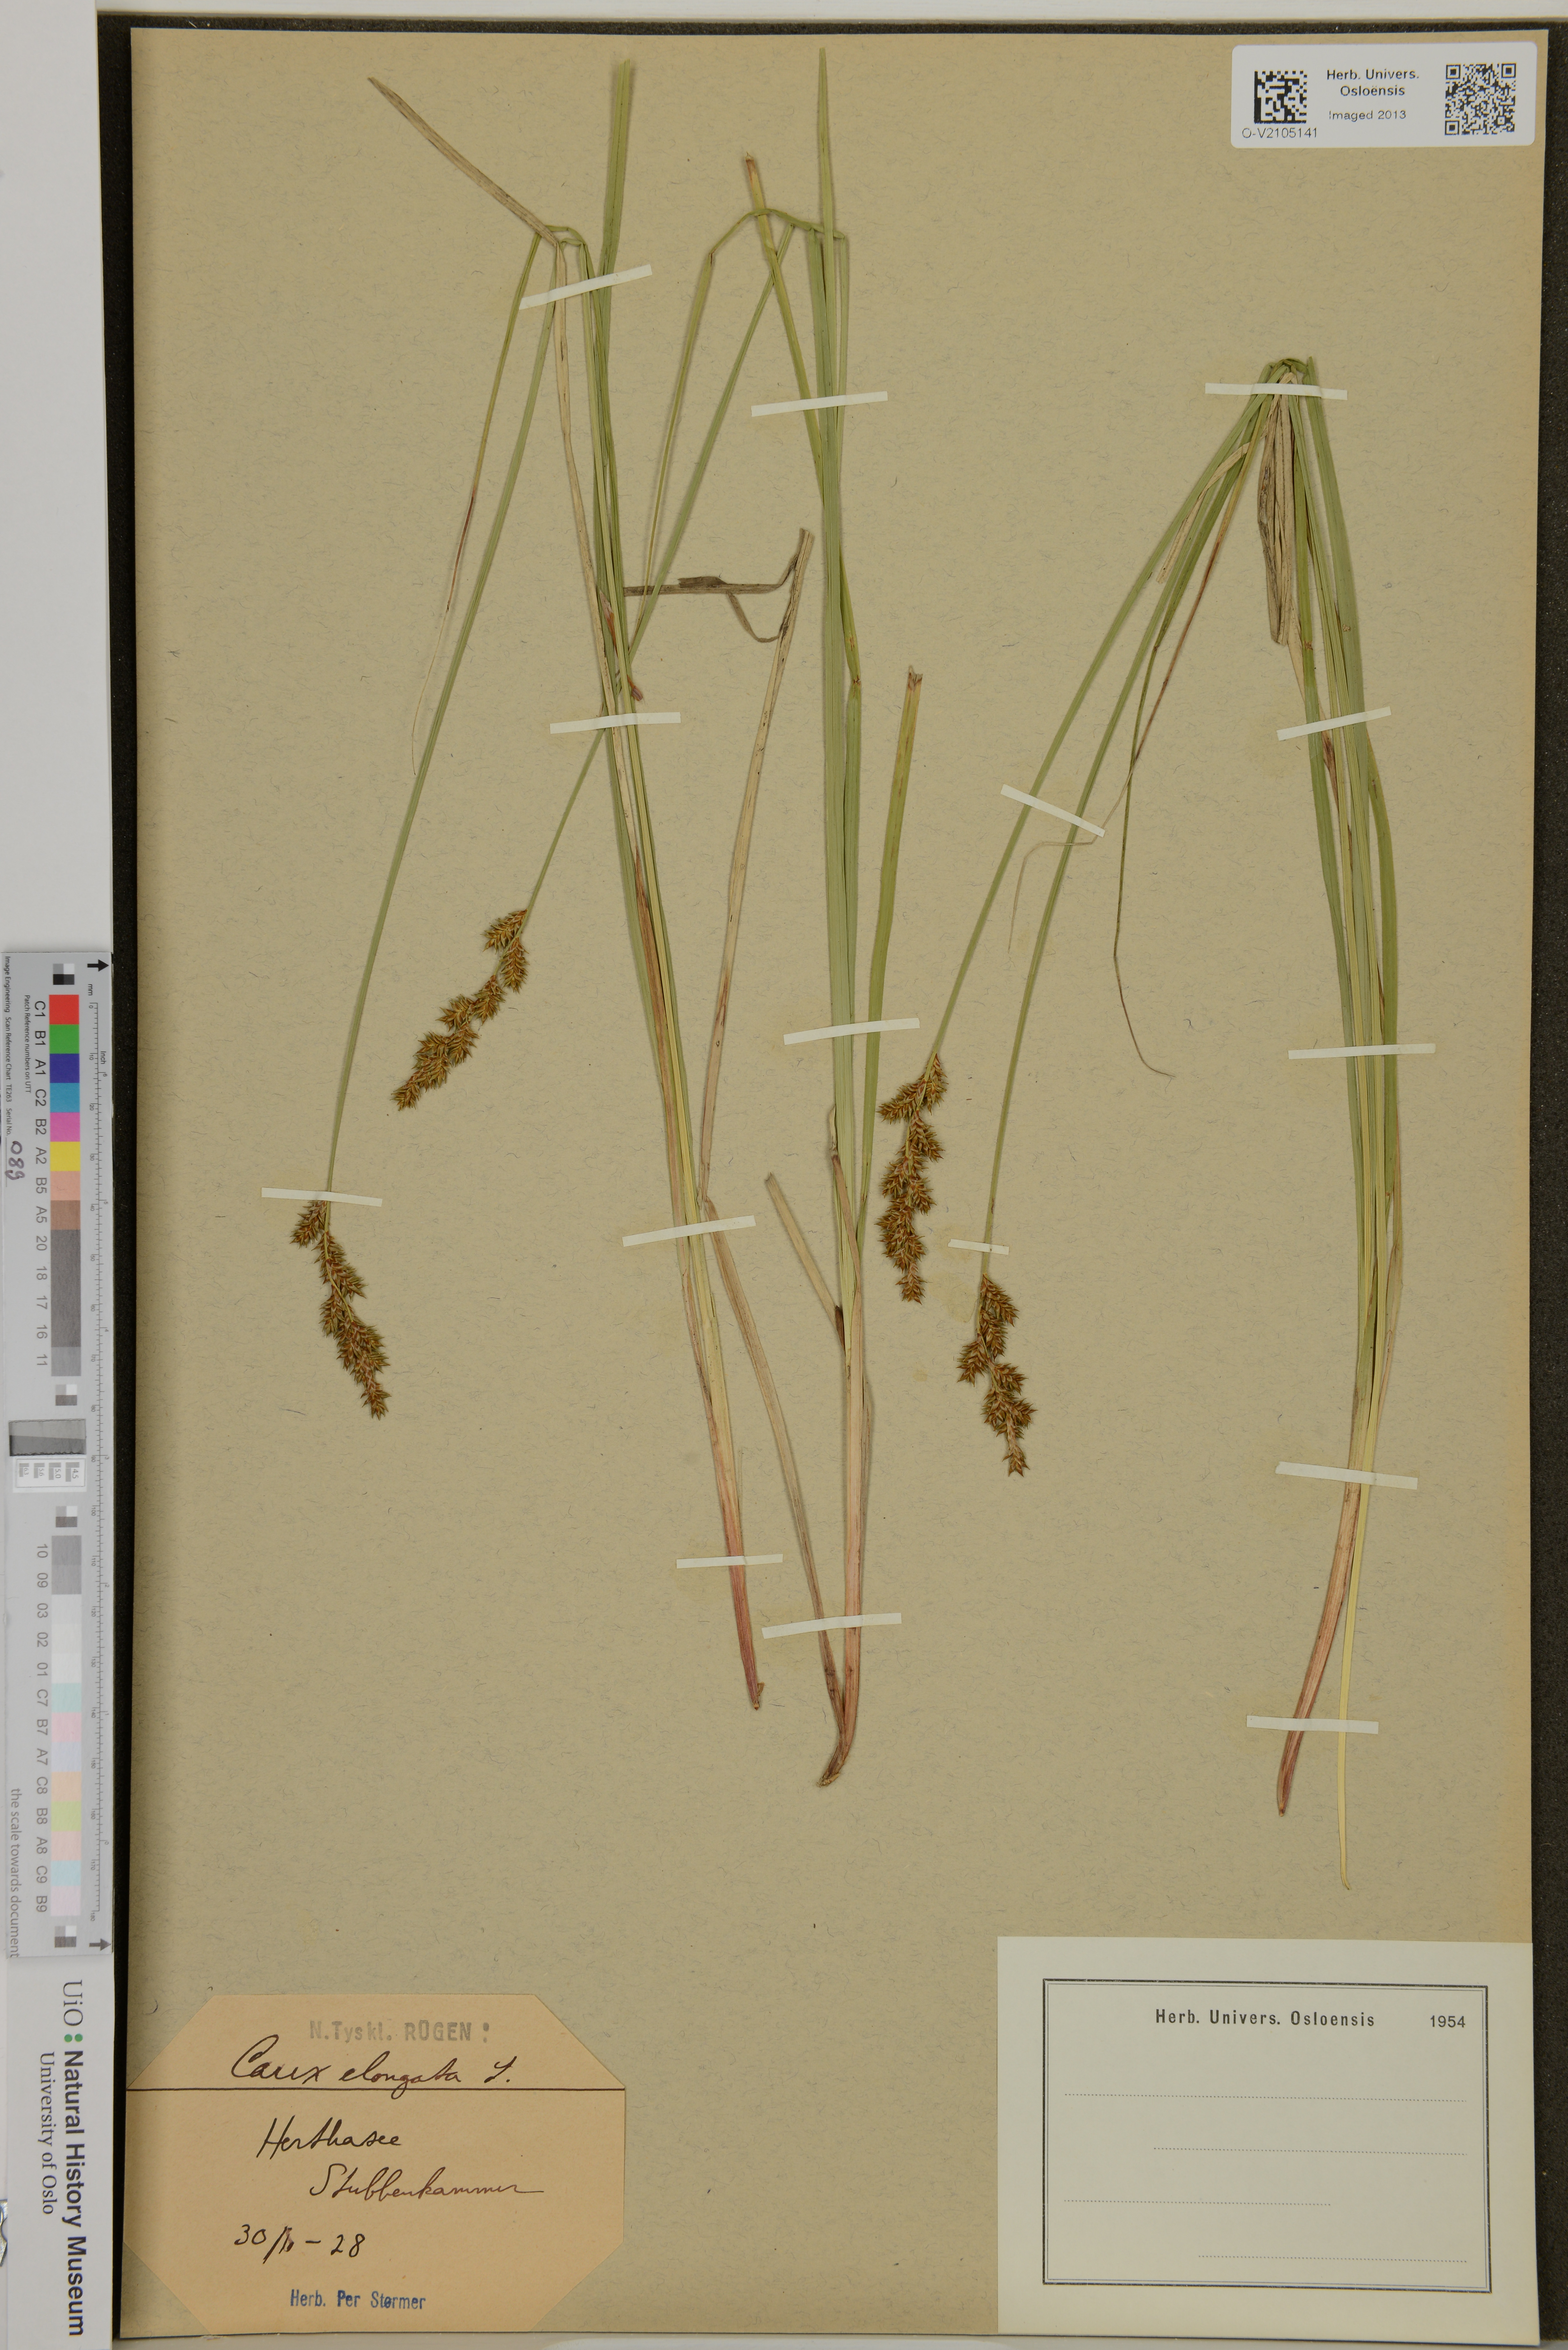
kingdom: Plantae
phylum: Tracheophyta
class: Liliopsida
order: Poales
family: Cyperaceae
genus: Carex
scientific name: Carex elongata
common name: Elongated sedge
